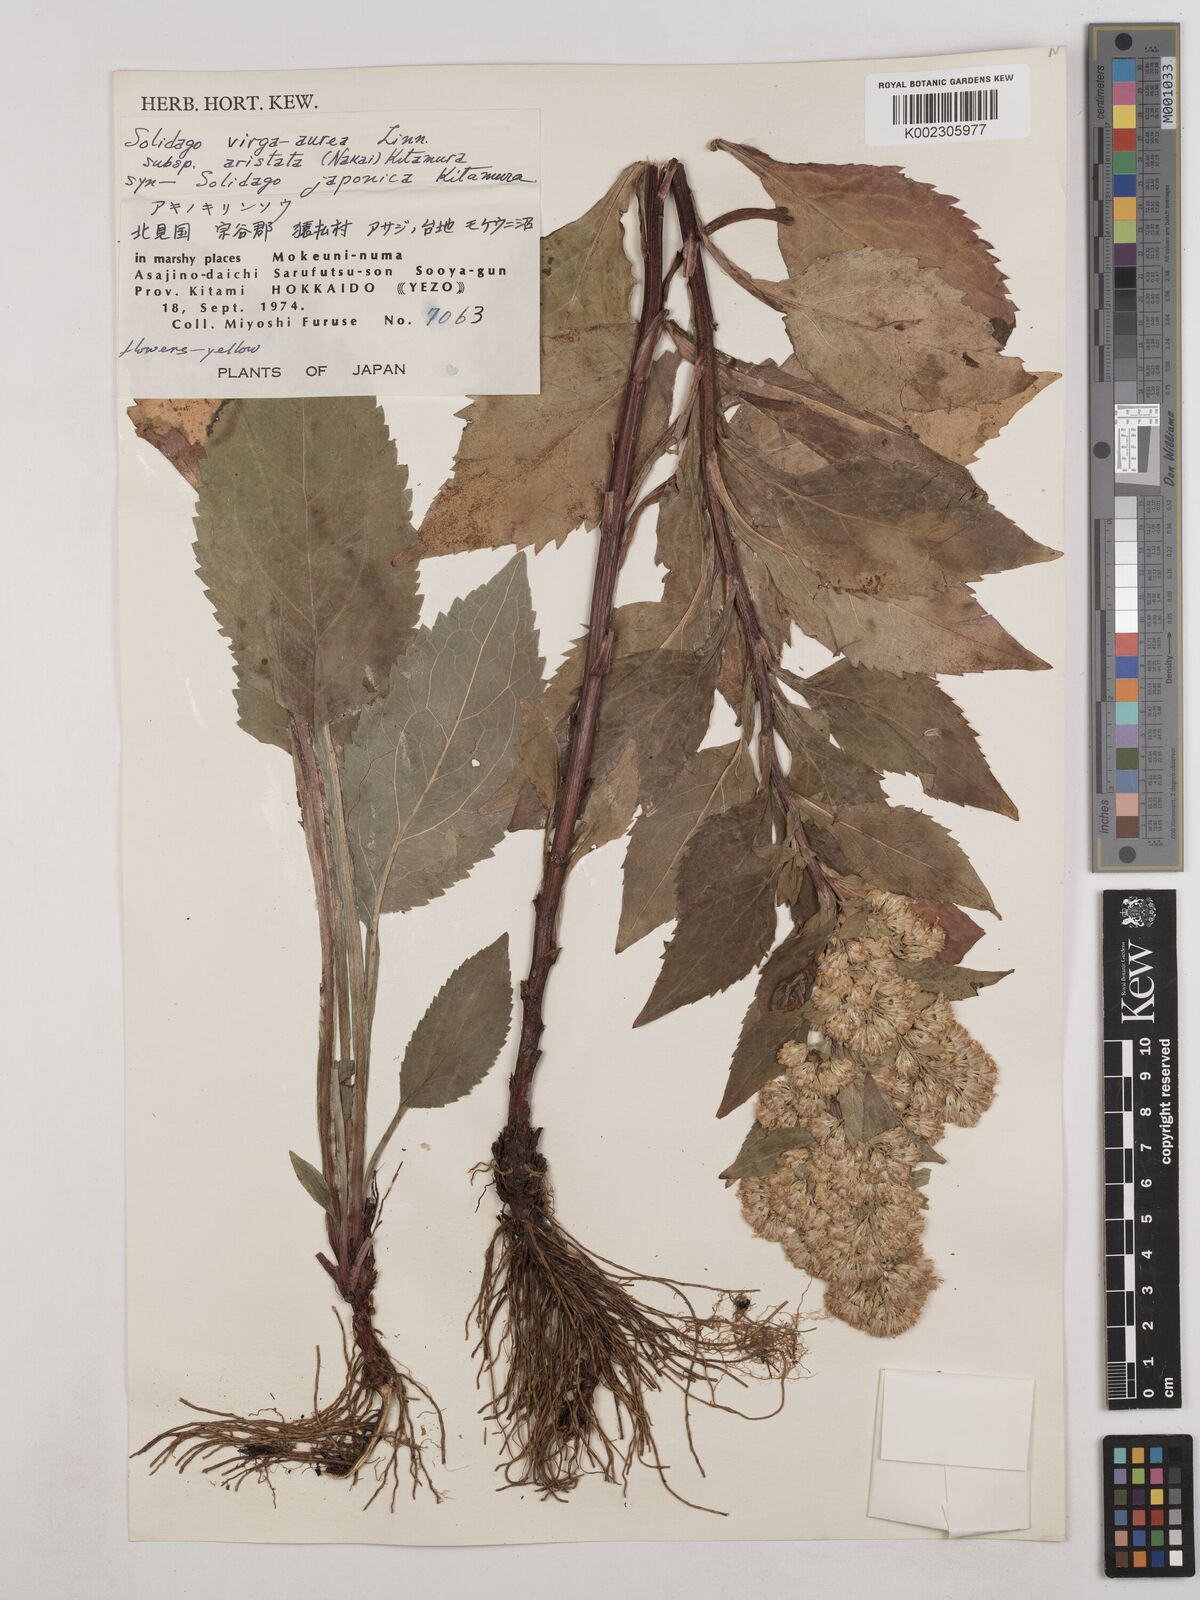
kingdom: Plantae
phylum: Tracheophyta
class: Magnoliopsida
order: Asterales
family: Asteraceae
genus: Solidago
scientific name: Solidago virgaurea
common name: Goldenrod
